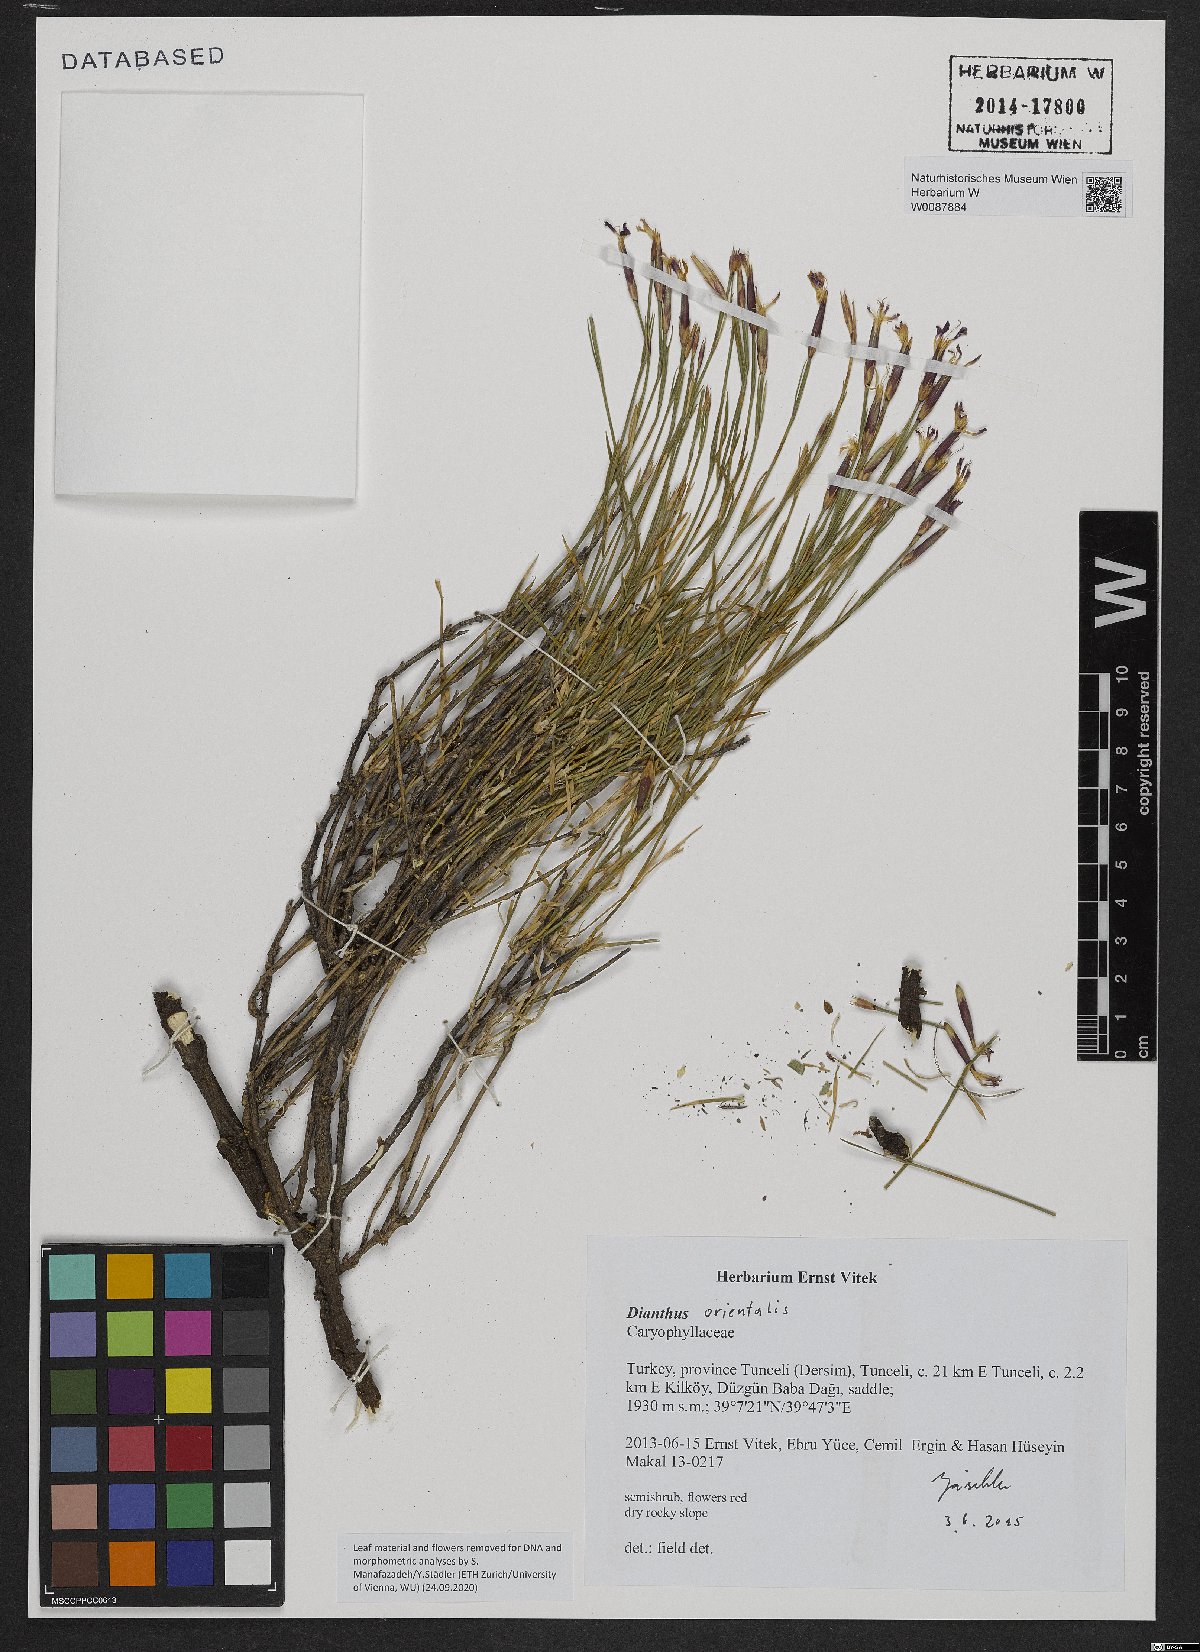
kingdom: Plantae
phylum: Tracheophyta
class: Magnoliopsida
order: Caryophyllales
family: Caryophyllaceae
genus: Dianthus
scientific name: Dianthus orientalis
